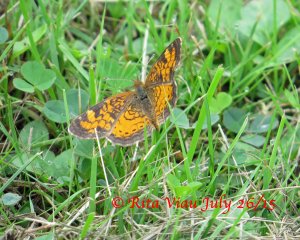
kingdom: Animalia
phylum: Arthropoda
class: Insecta
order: Lepidoptera
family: Nymphalidae
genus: Phyciodes
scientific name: Phyciodes tharos
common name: Northern Crescent
